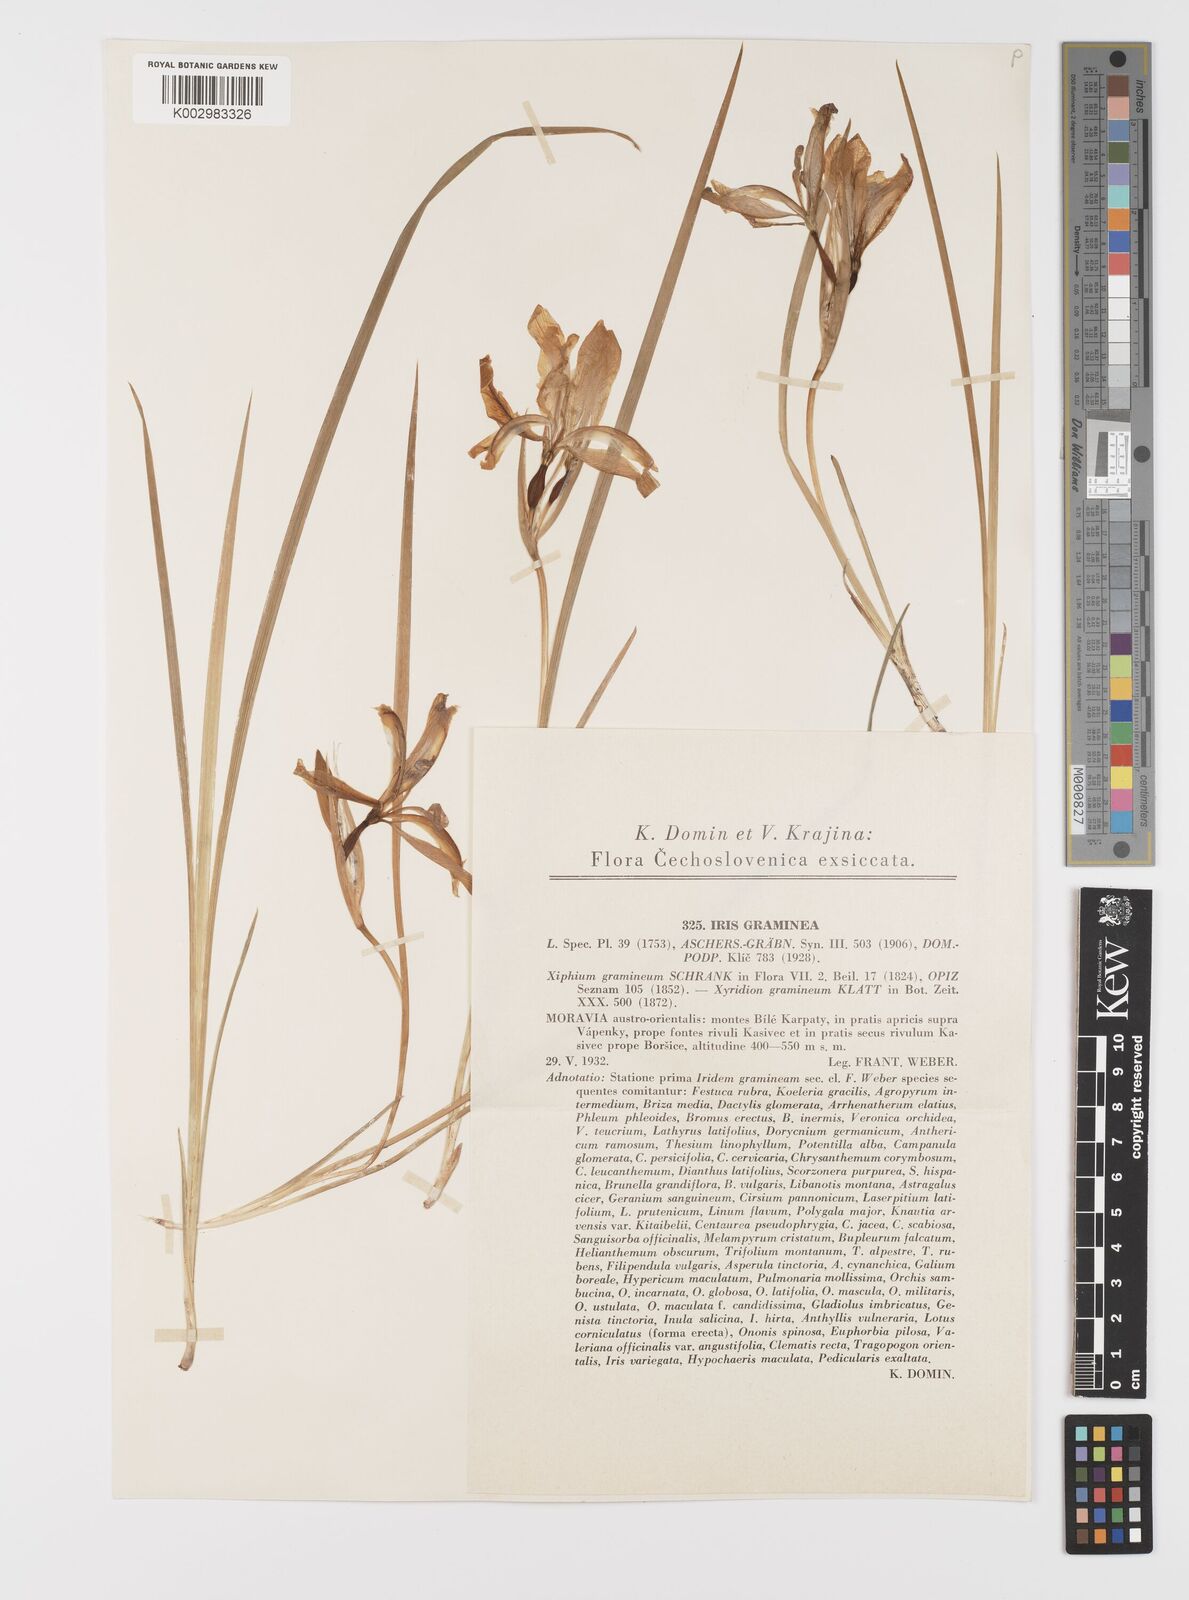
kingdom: Plantae
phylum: Tracheophyta
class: Liliopsida
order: Asparagales
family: Iridaceae
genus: Iris
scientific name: Iris graminea
